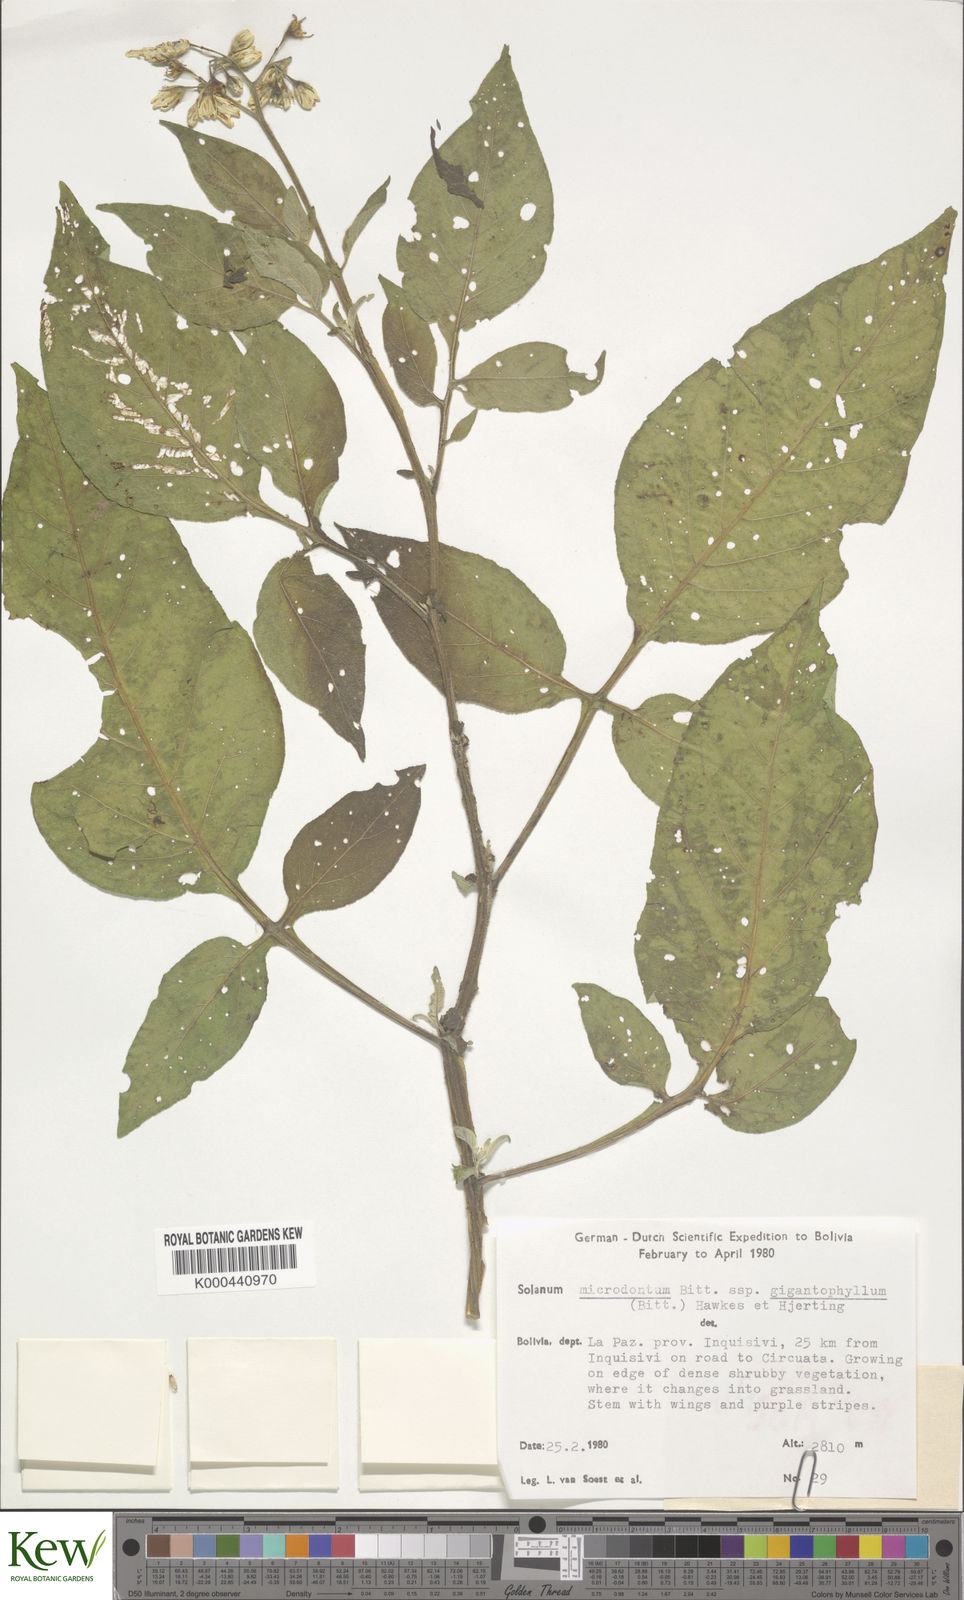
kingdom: Plantae
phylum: Tracheophyta
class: Magnoliopsida
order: Solanales
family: Solanaceae
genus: Solanum
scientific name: Solanum microdontum
